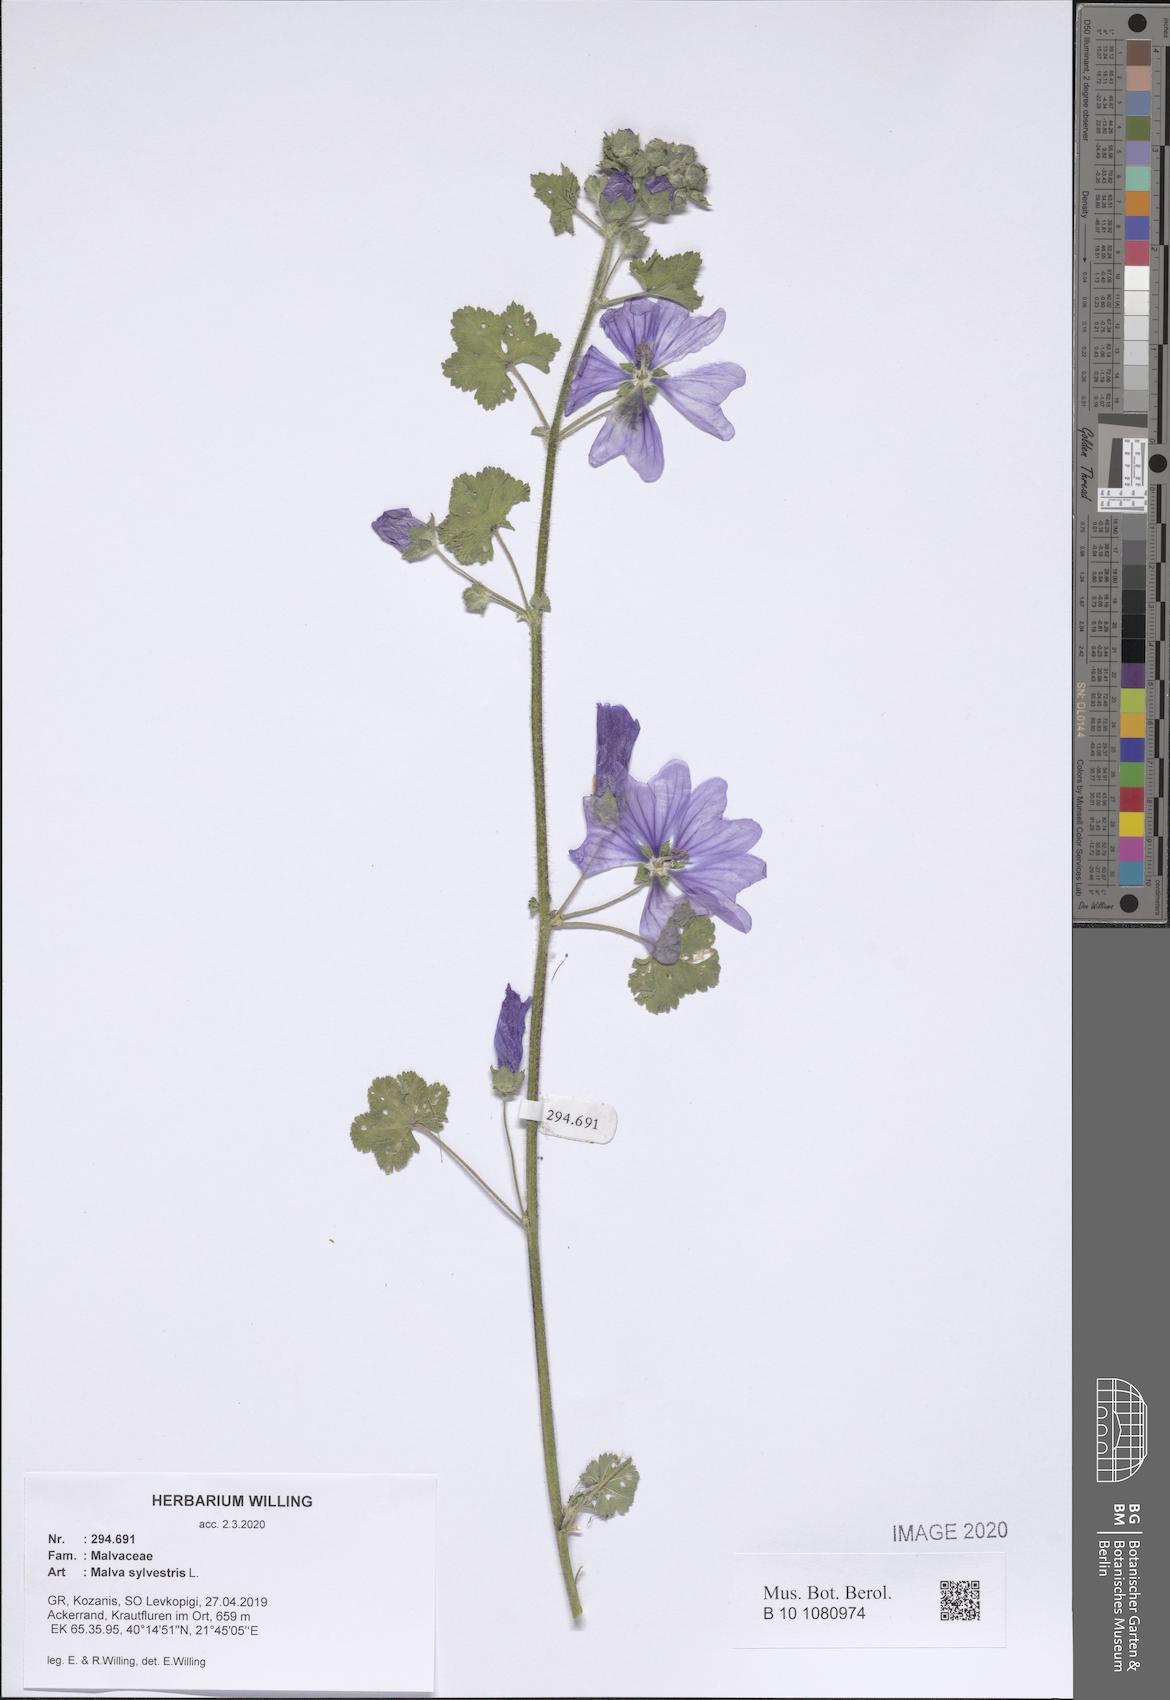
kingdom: Plantae
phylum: Tracheophyta
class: Magnoliopsida
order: Malvales
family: Malvaceae
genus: Malva
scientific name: Malva sylvestris
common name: Common mallow
